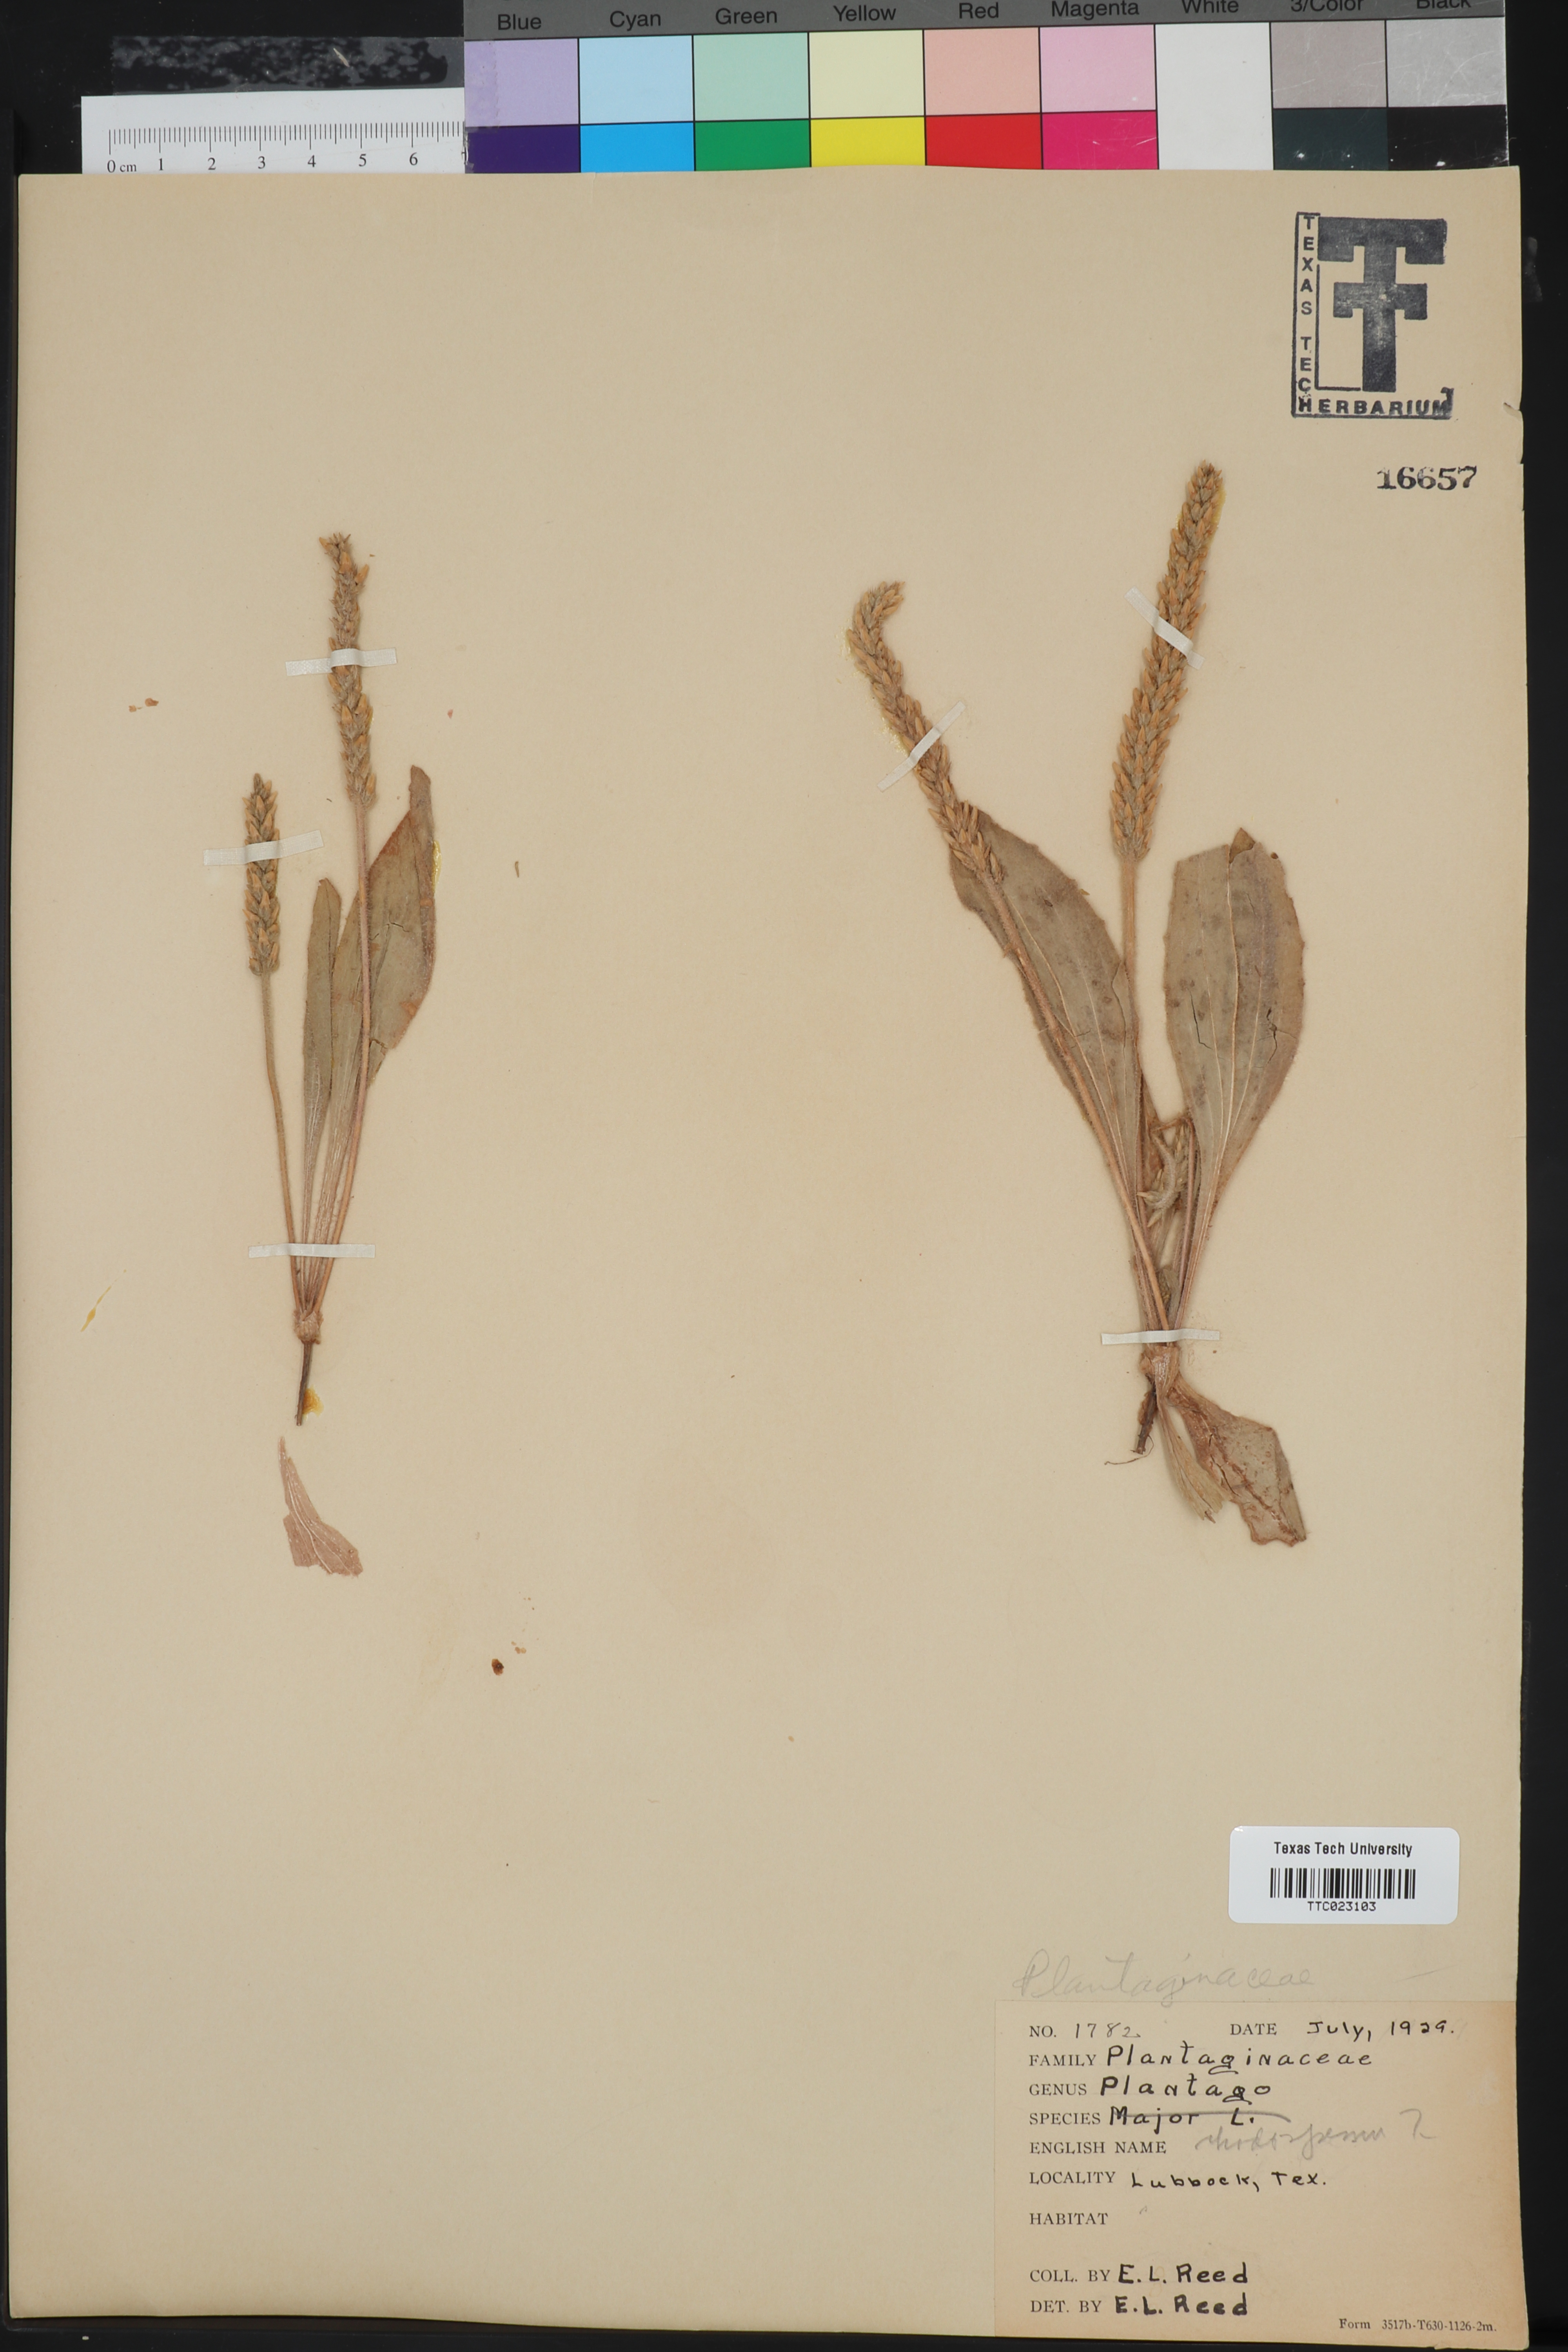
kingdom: Plantae
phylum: Tracheophyta
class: Magnoliopsida
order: Lamiales
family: Plantaginaceae
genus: Plantago
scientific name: Plantago major
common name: Common plantain
